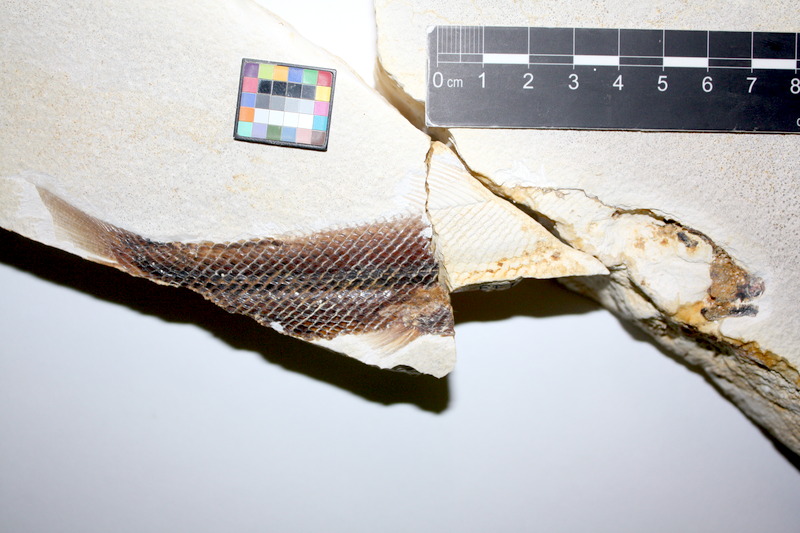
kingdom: Animalia
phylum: Chordata
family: Ophiopsiellidae
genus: Ophiopsiella
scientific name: Ophiopsiella attenuata
